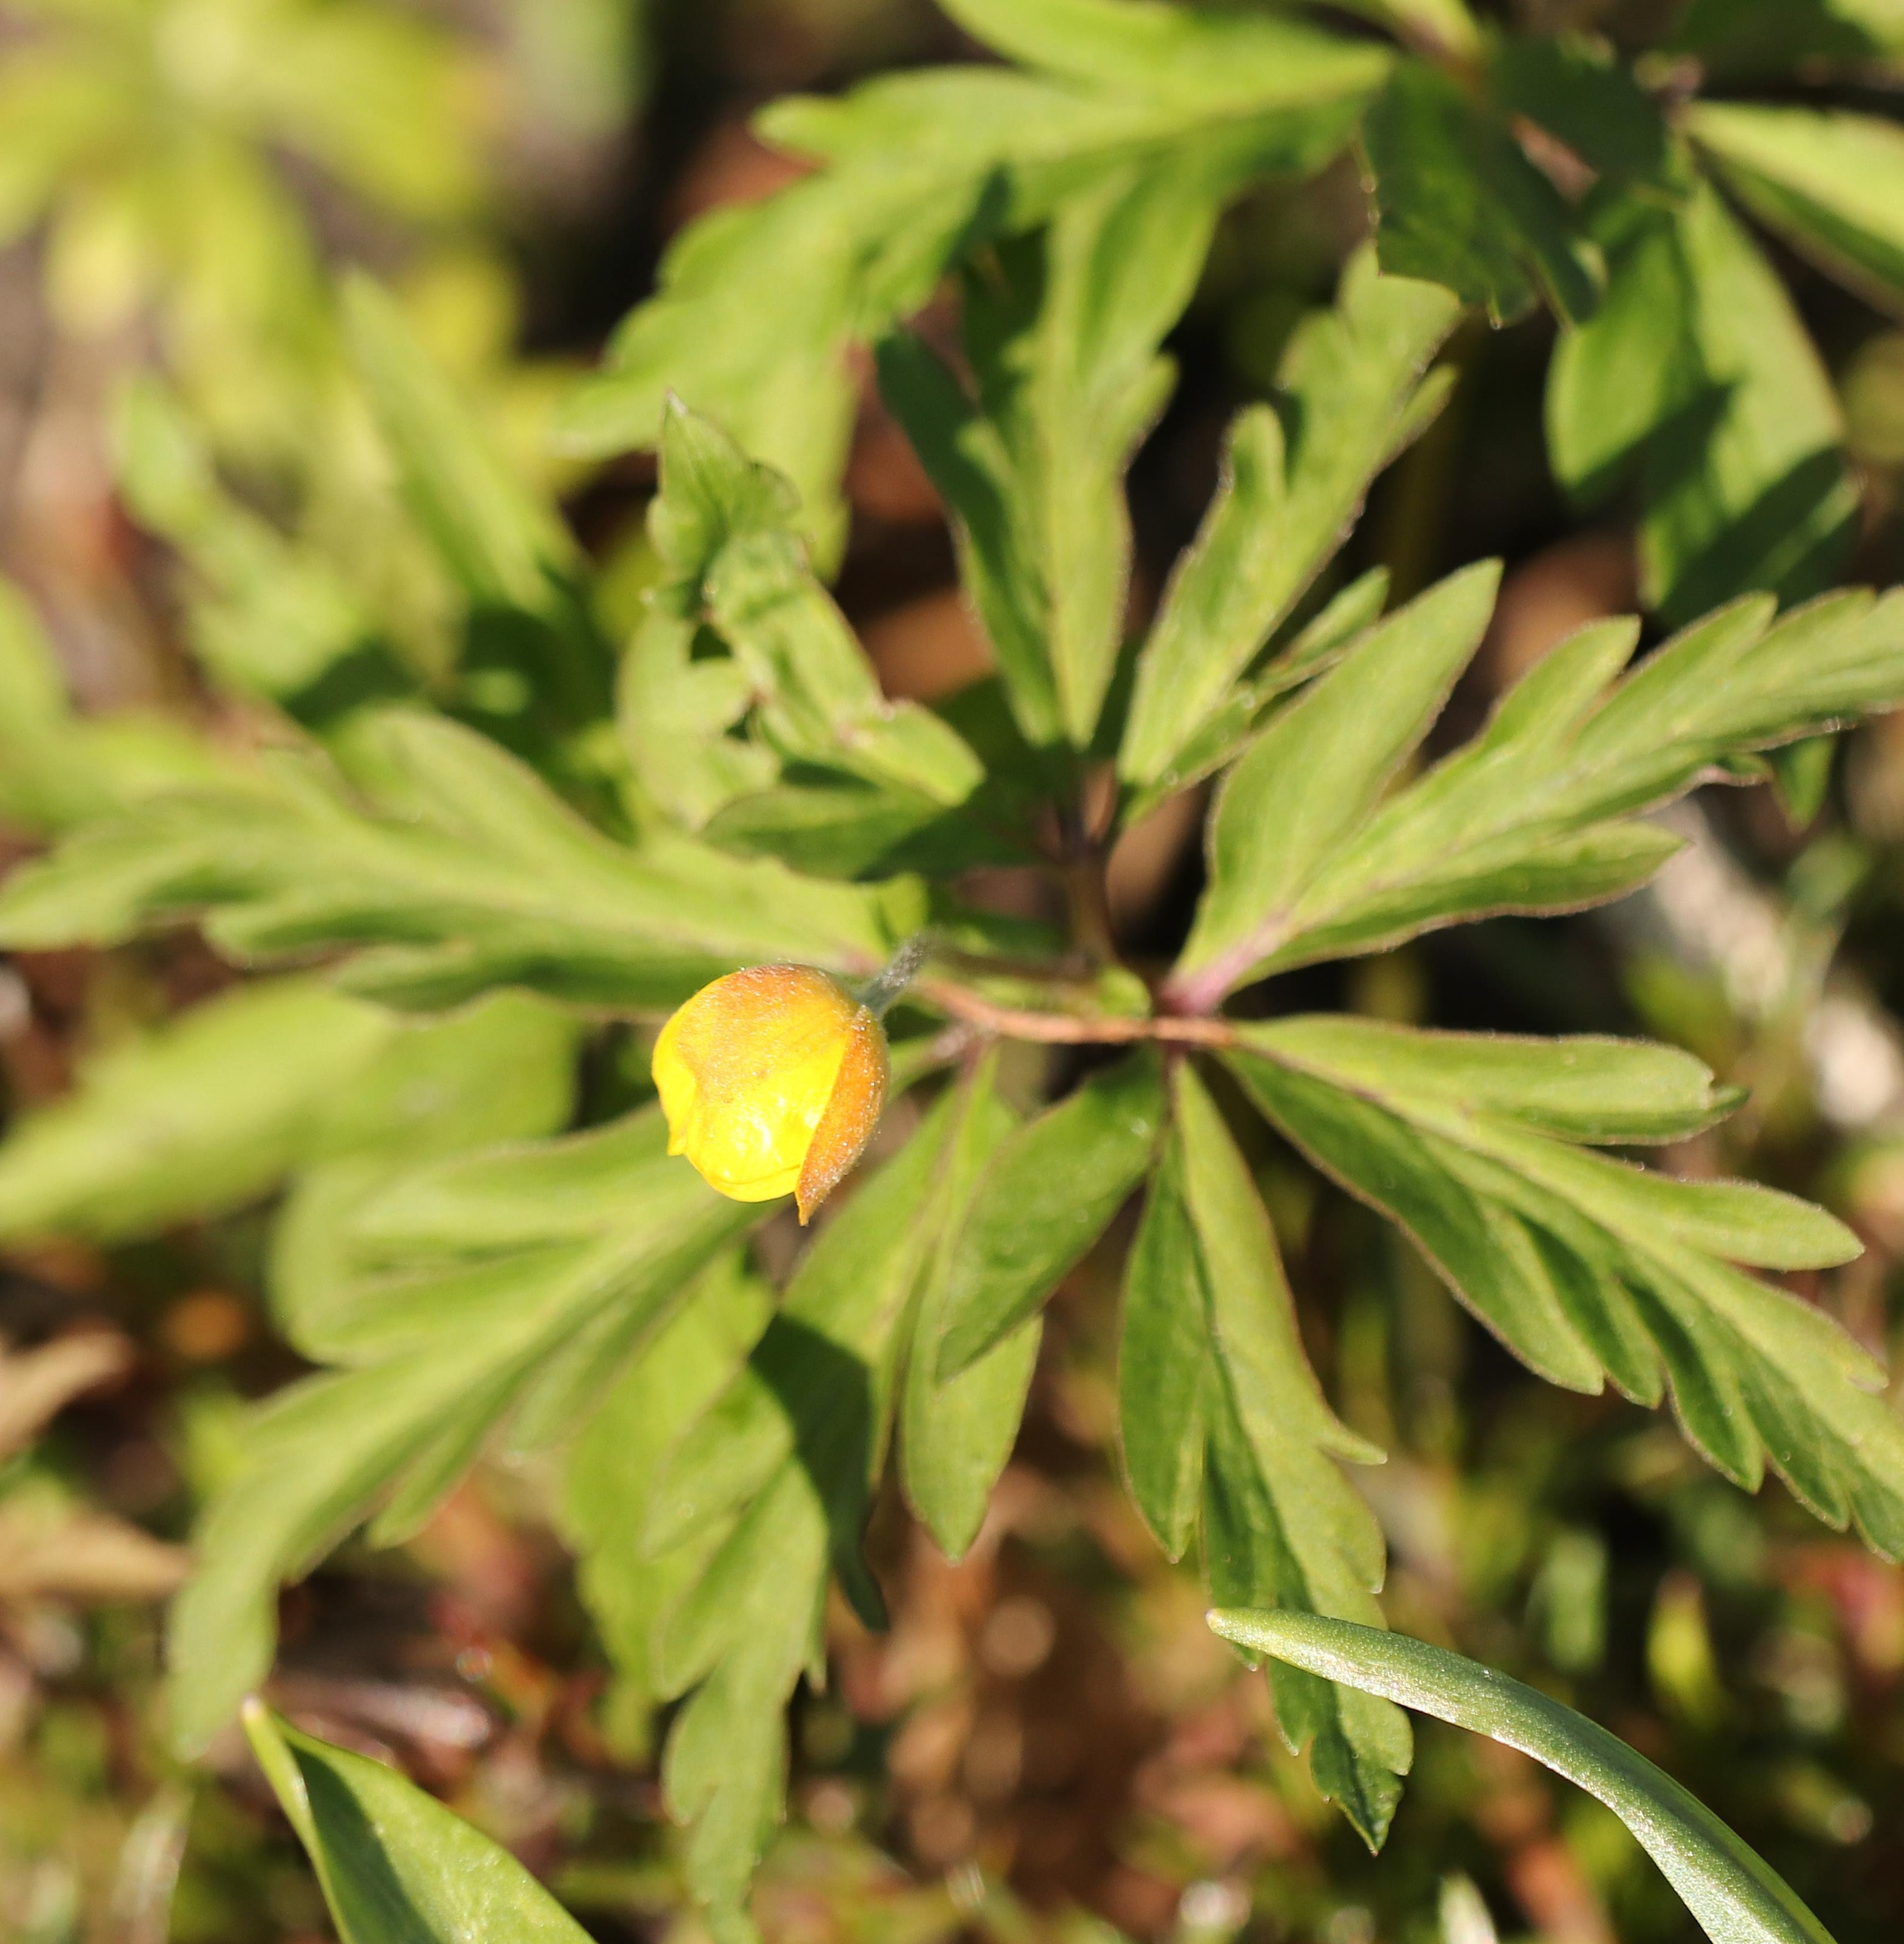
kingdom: Plantae
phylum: Tracheophyta
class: Magnoliopsida
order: Ranunculales
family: Ranunculaceae
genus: Anemone
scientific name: Anemone ranunculoides
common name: Gul anemone
